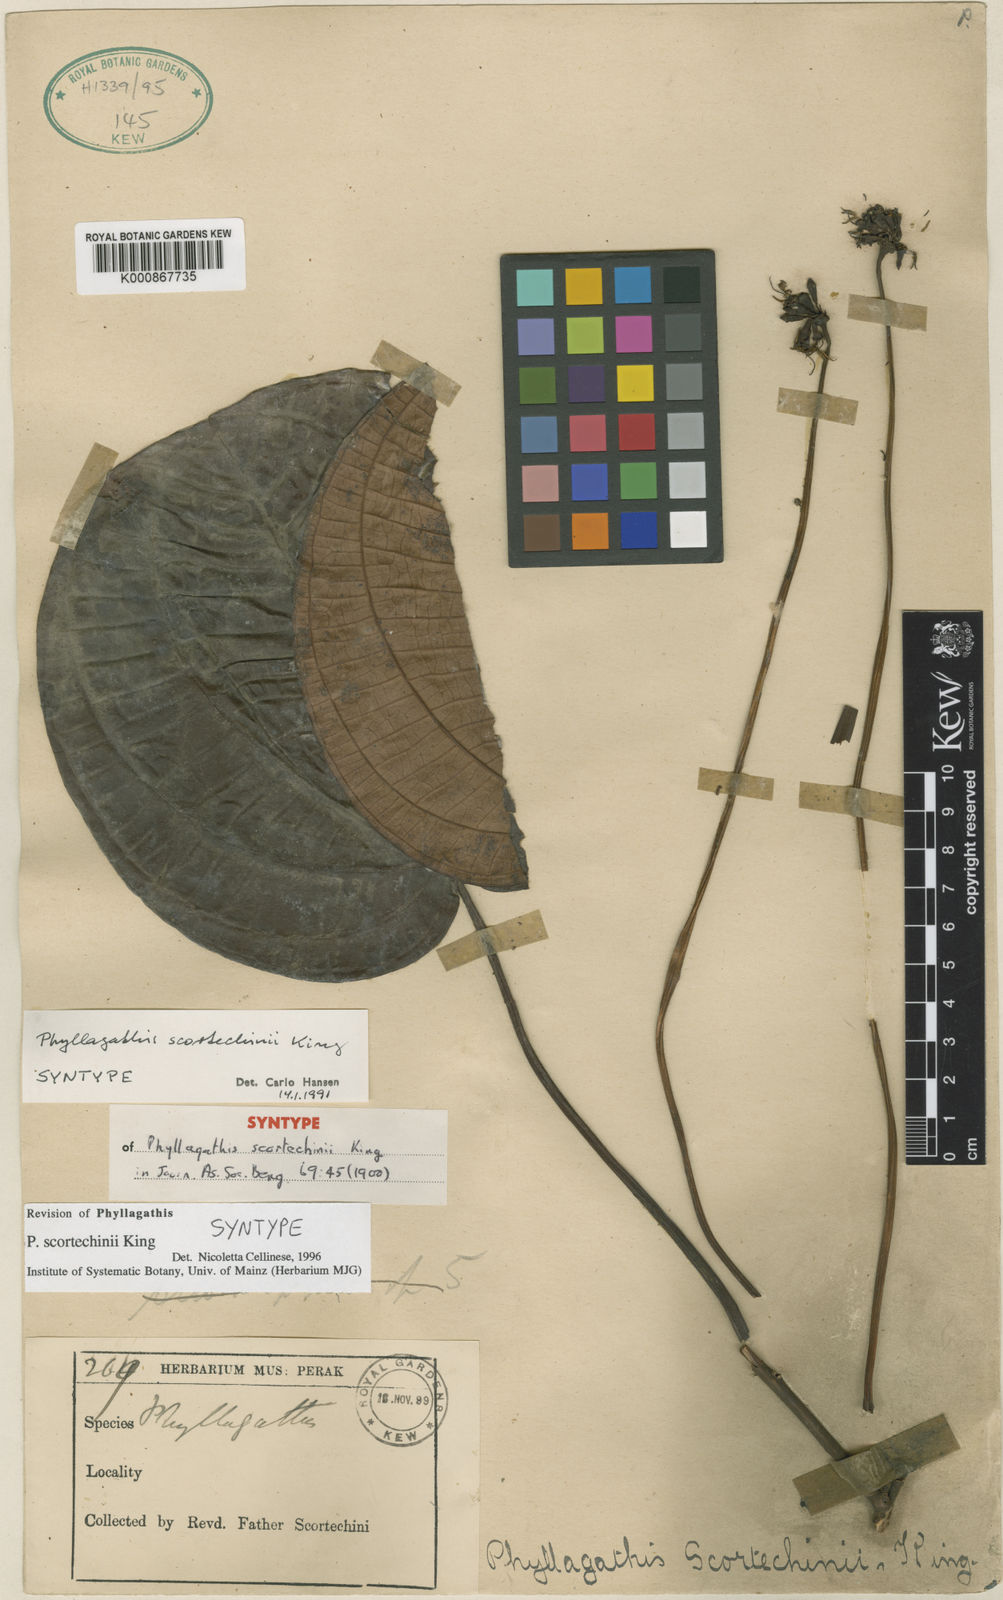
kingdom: Plantae
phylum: Tracheophyta
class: Magnoliopsida
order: Myrtales
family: Melastomataceae
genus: Phyllagathis
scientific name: Phyllagathis scortechinii
